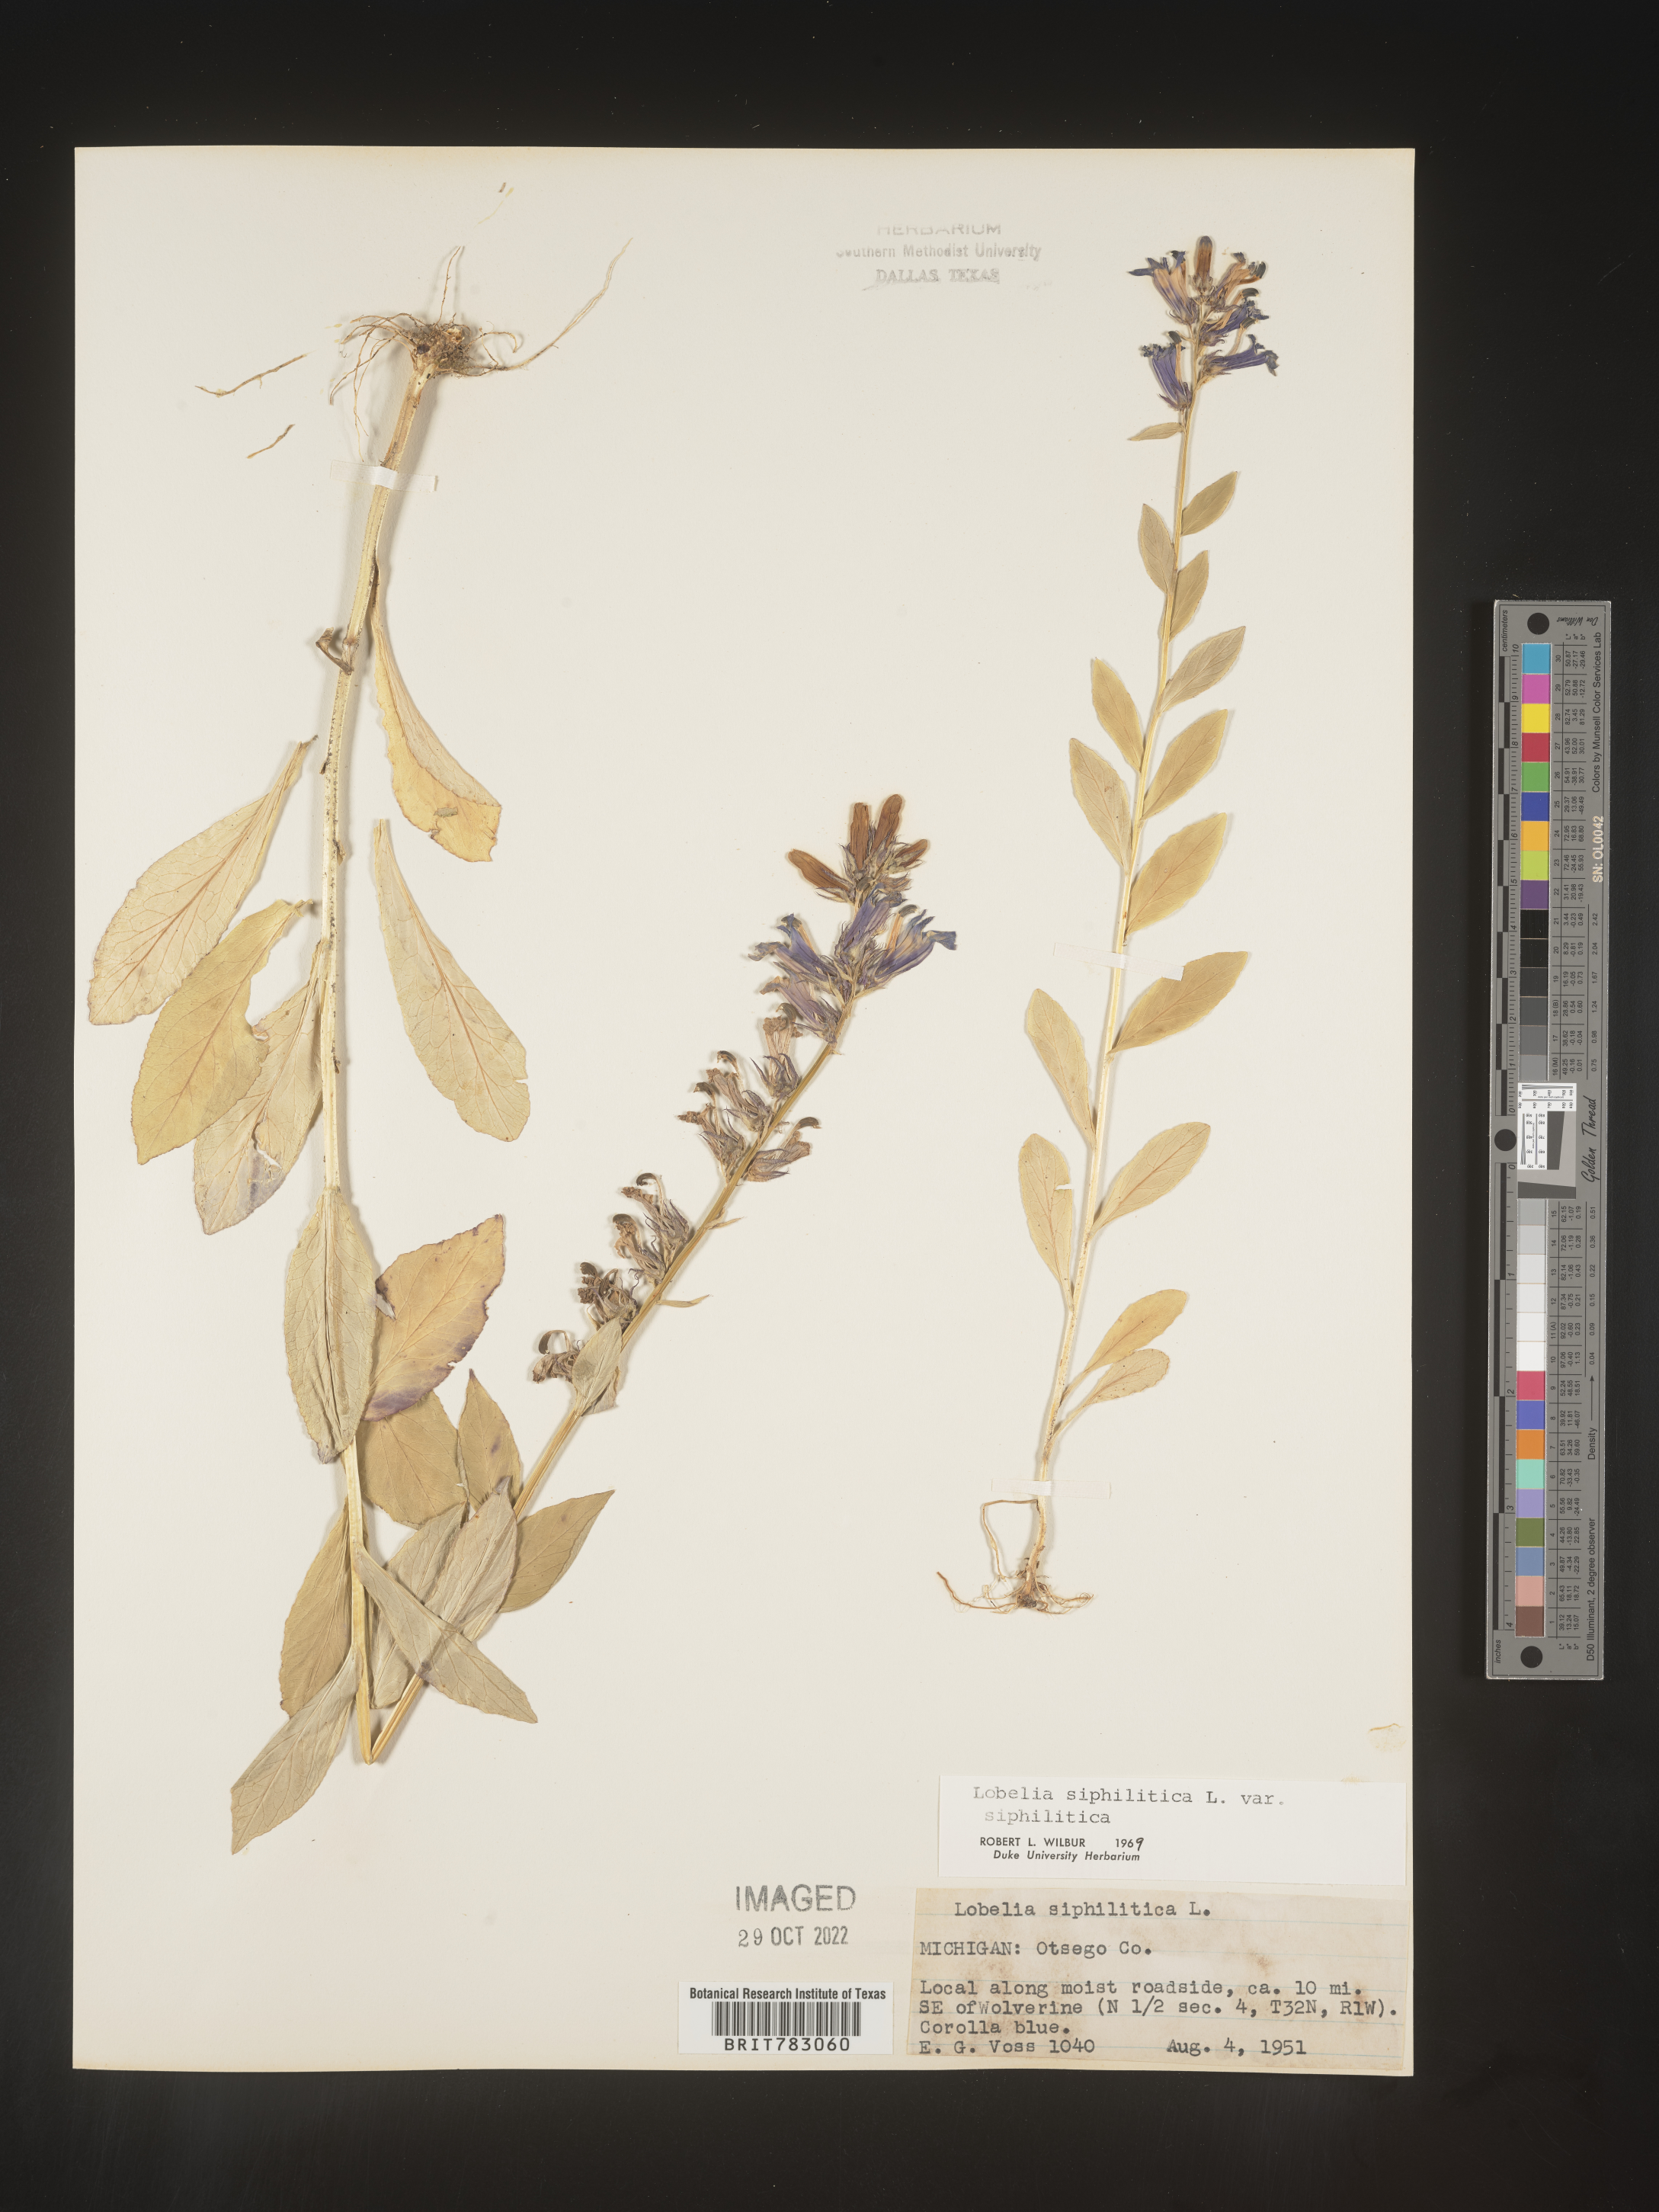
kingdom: Plantae
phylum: Tracheophyta
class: Magnoliopsida
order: Asterales
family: Campanulaceae
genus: Lobelia
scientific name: Lobelia siphilitica
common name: Great lobelia
